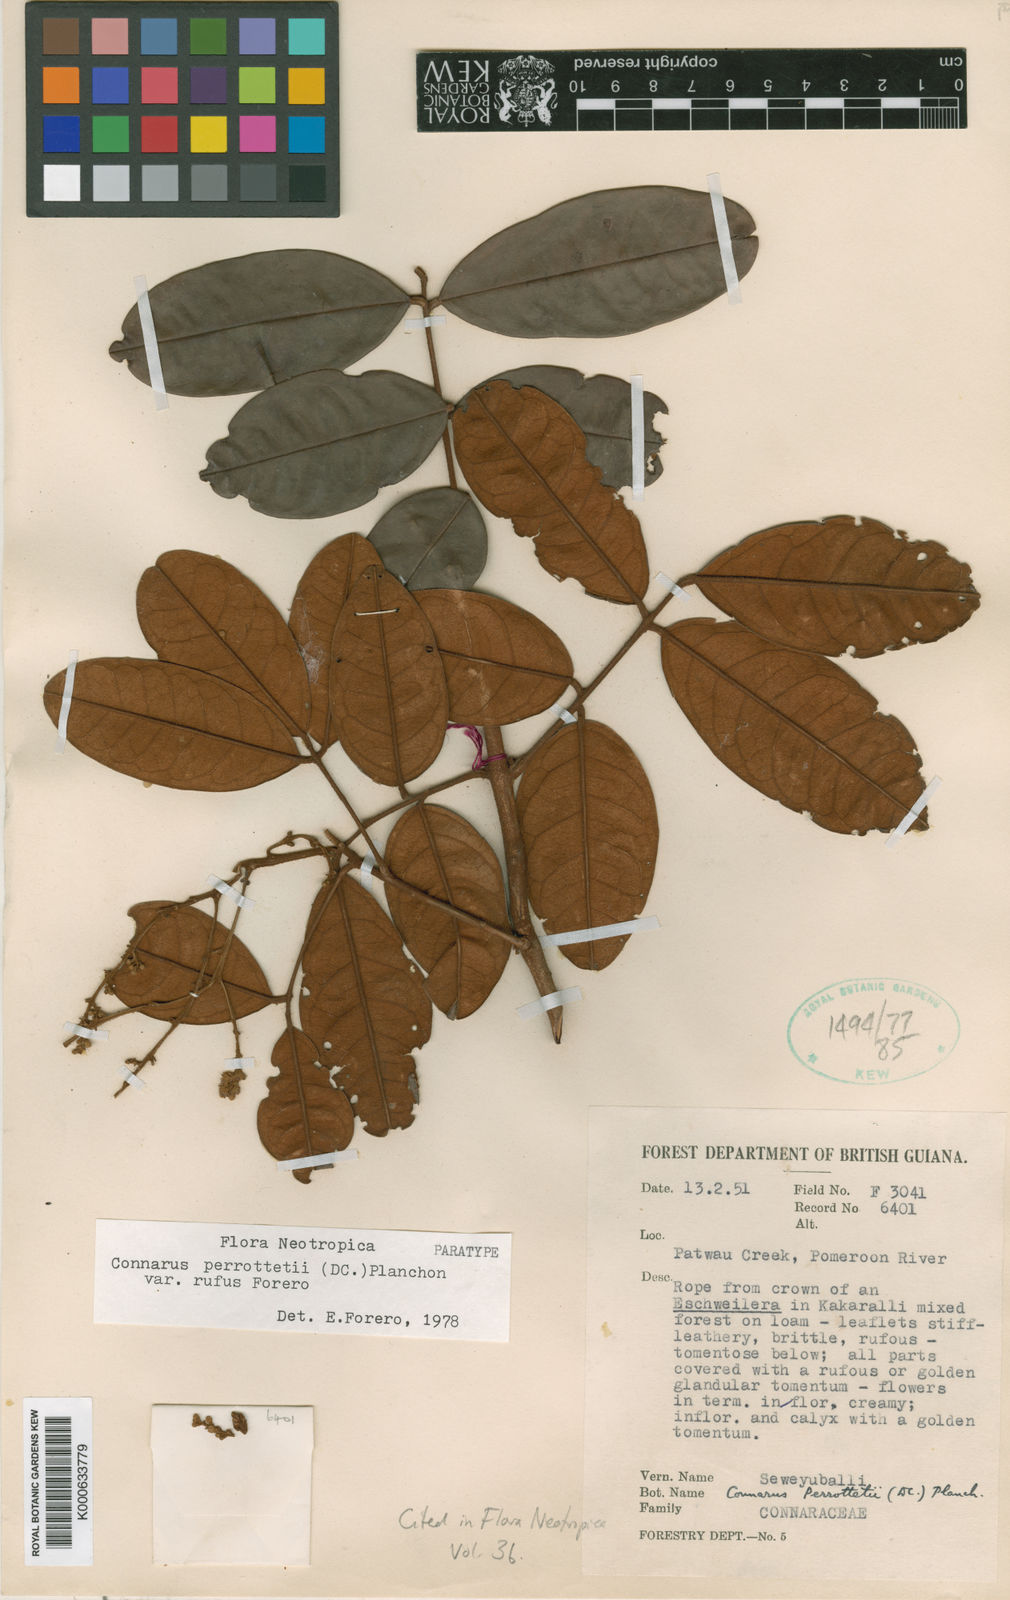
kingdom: Plantae
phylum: Tracheophyta
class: Magnoliopsida
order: Oxalidales
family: Connaraceae
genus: Connarus
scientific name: Connarus perrottetii
